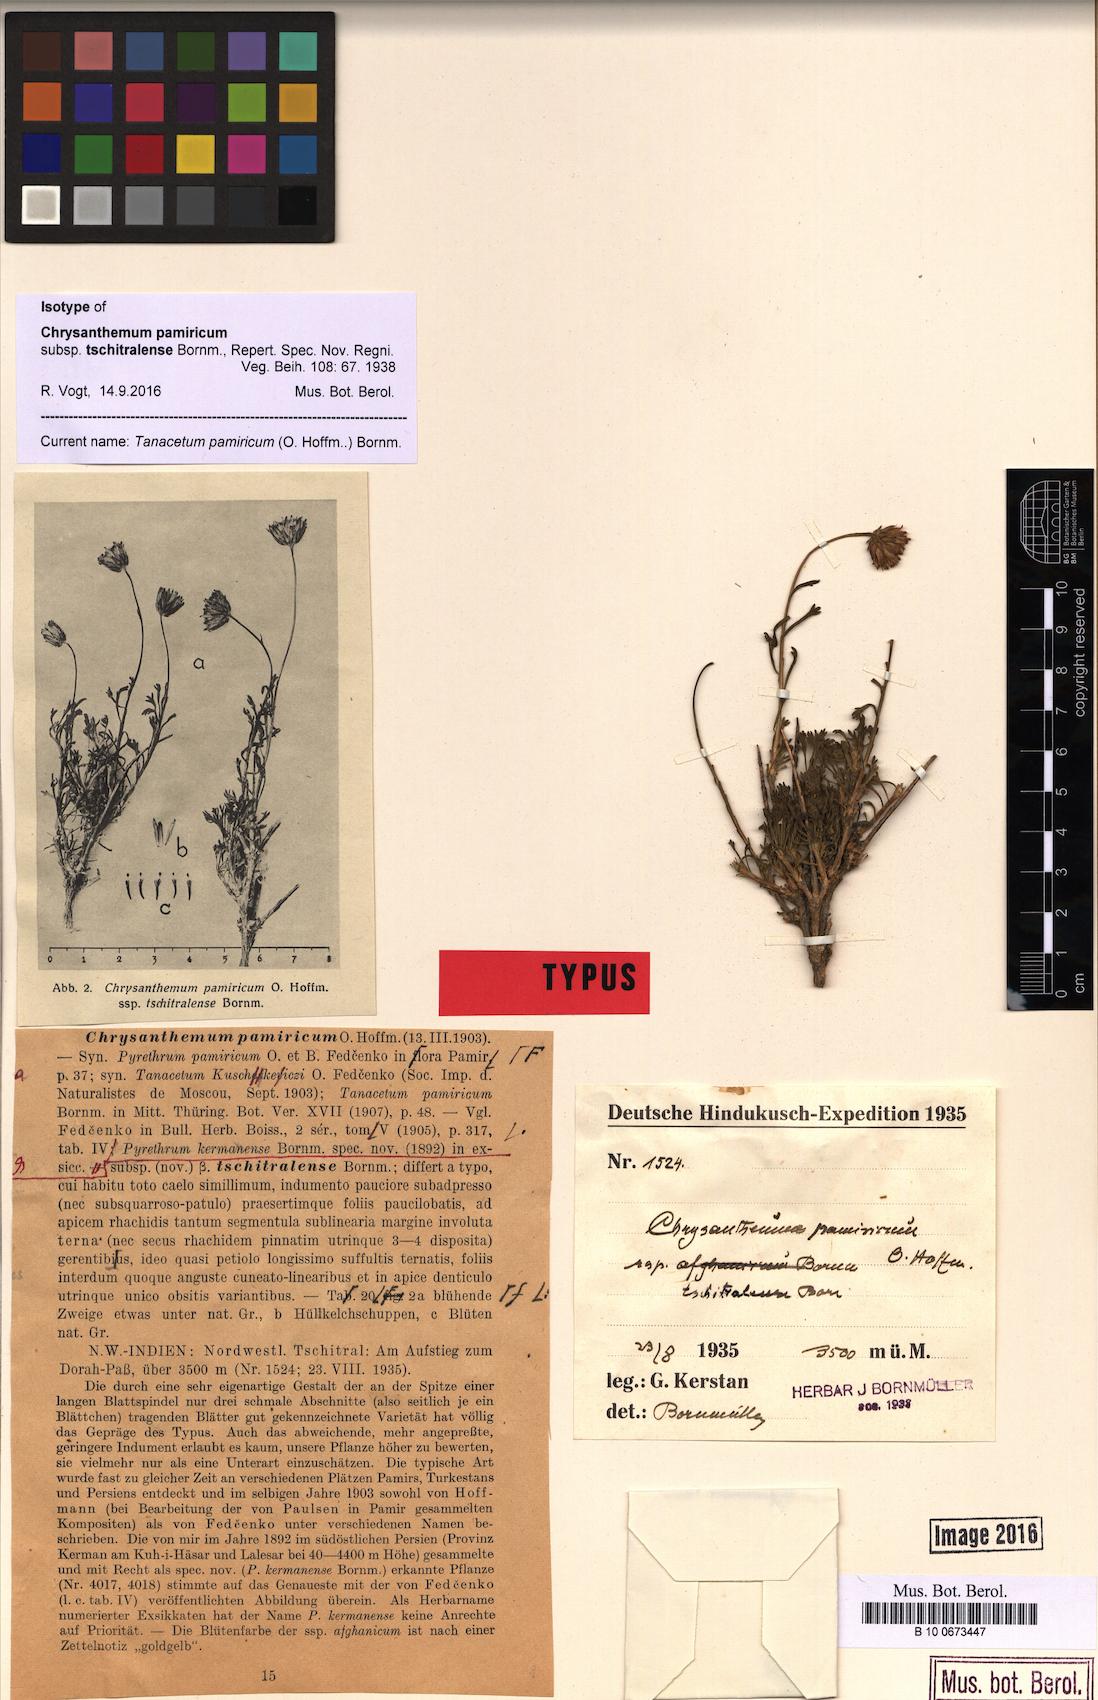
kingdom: Plantae
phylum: Tracheophyta
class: Magnoliopsida
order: Asterales
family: Asteraceae
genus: Xylanthemum
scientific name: Xylanthemum pamiricum
